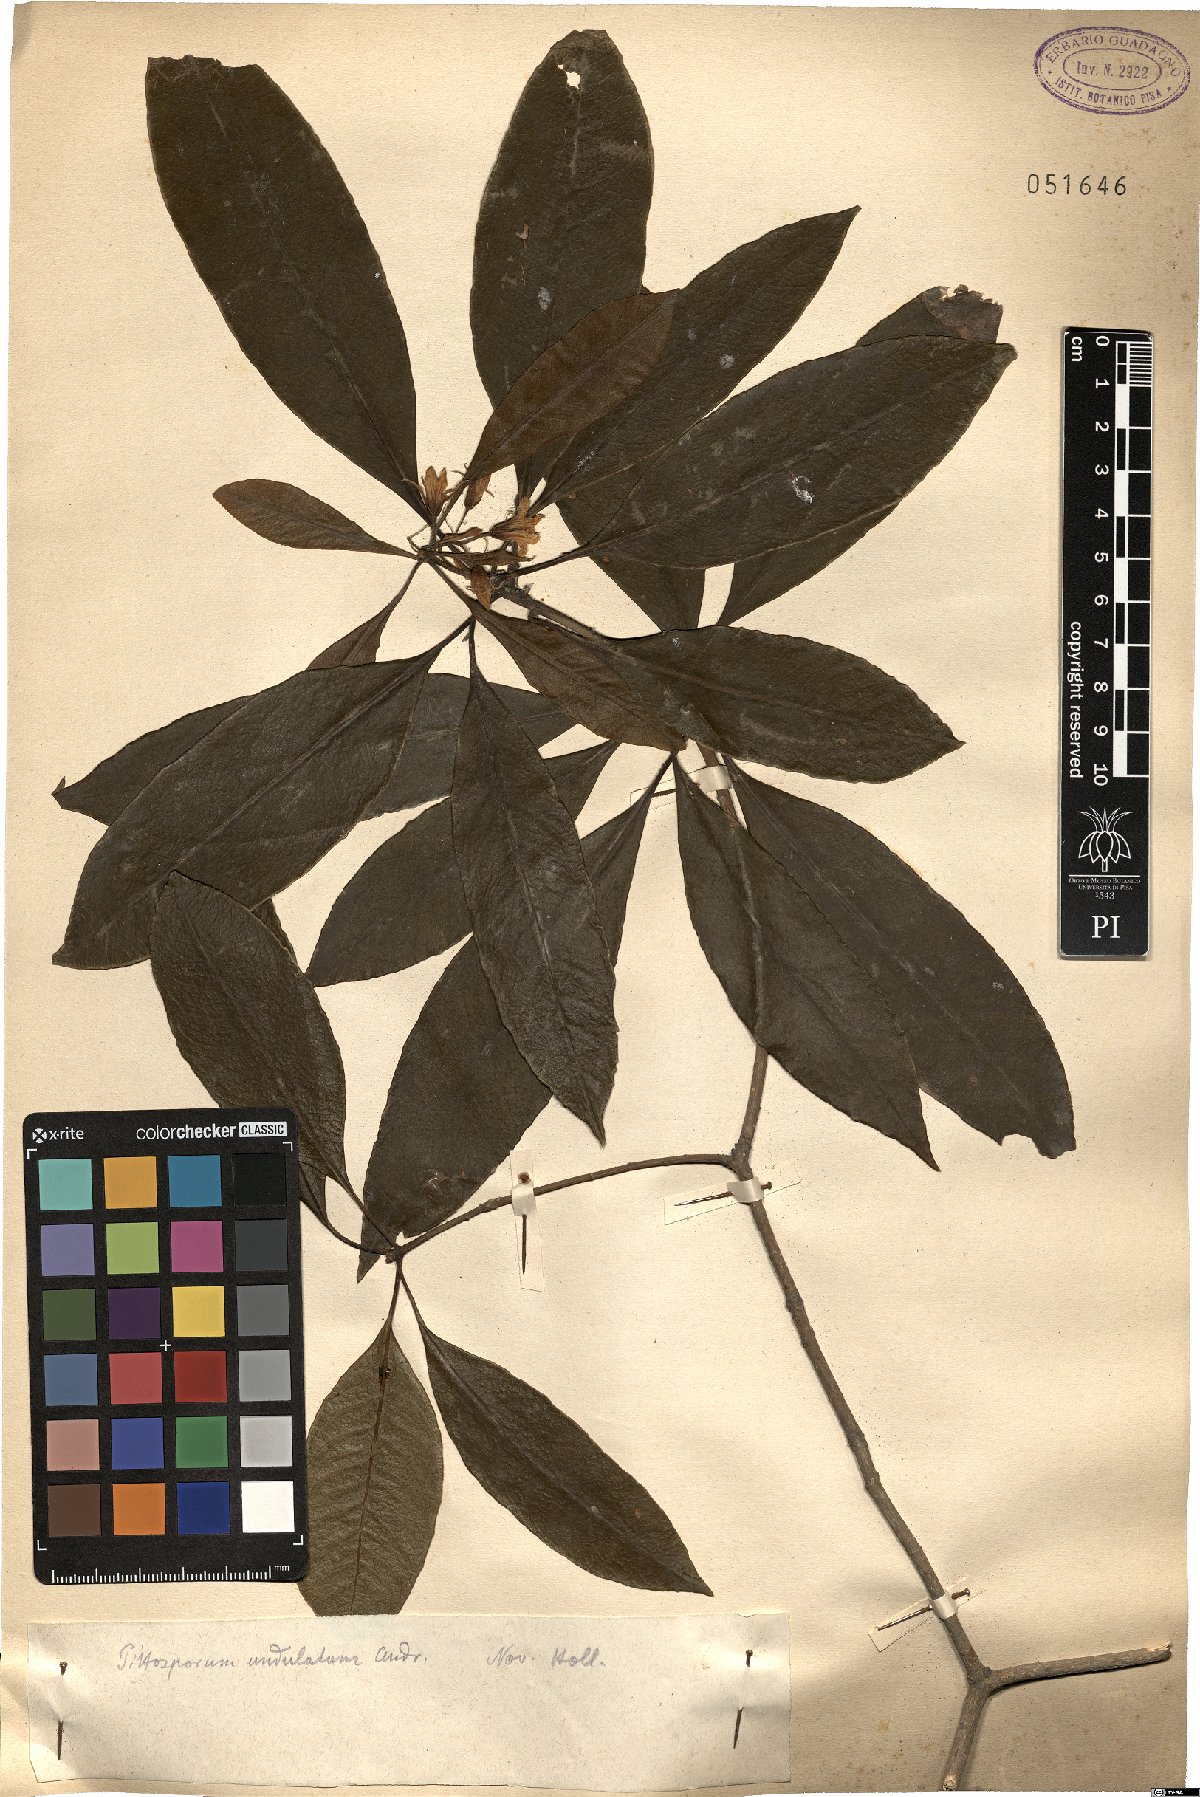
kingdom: Plantae
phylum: Tracheophyta
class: Magnoliopsida
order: Apiales
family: Pittosporaceae
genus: Pittosporum
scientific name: Pittosporum undulatum
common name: Australian cheesewood
